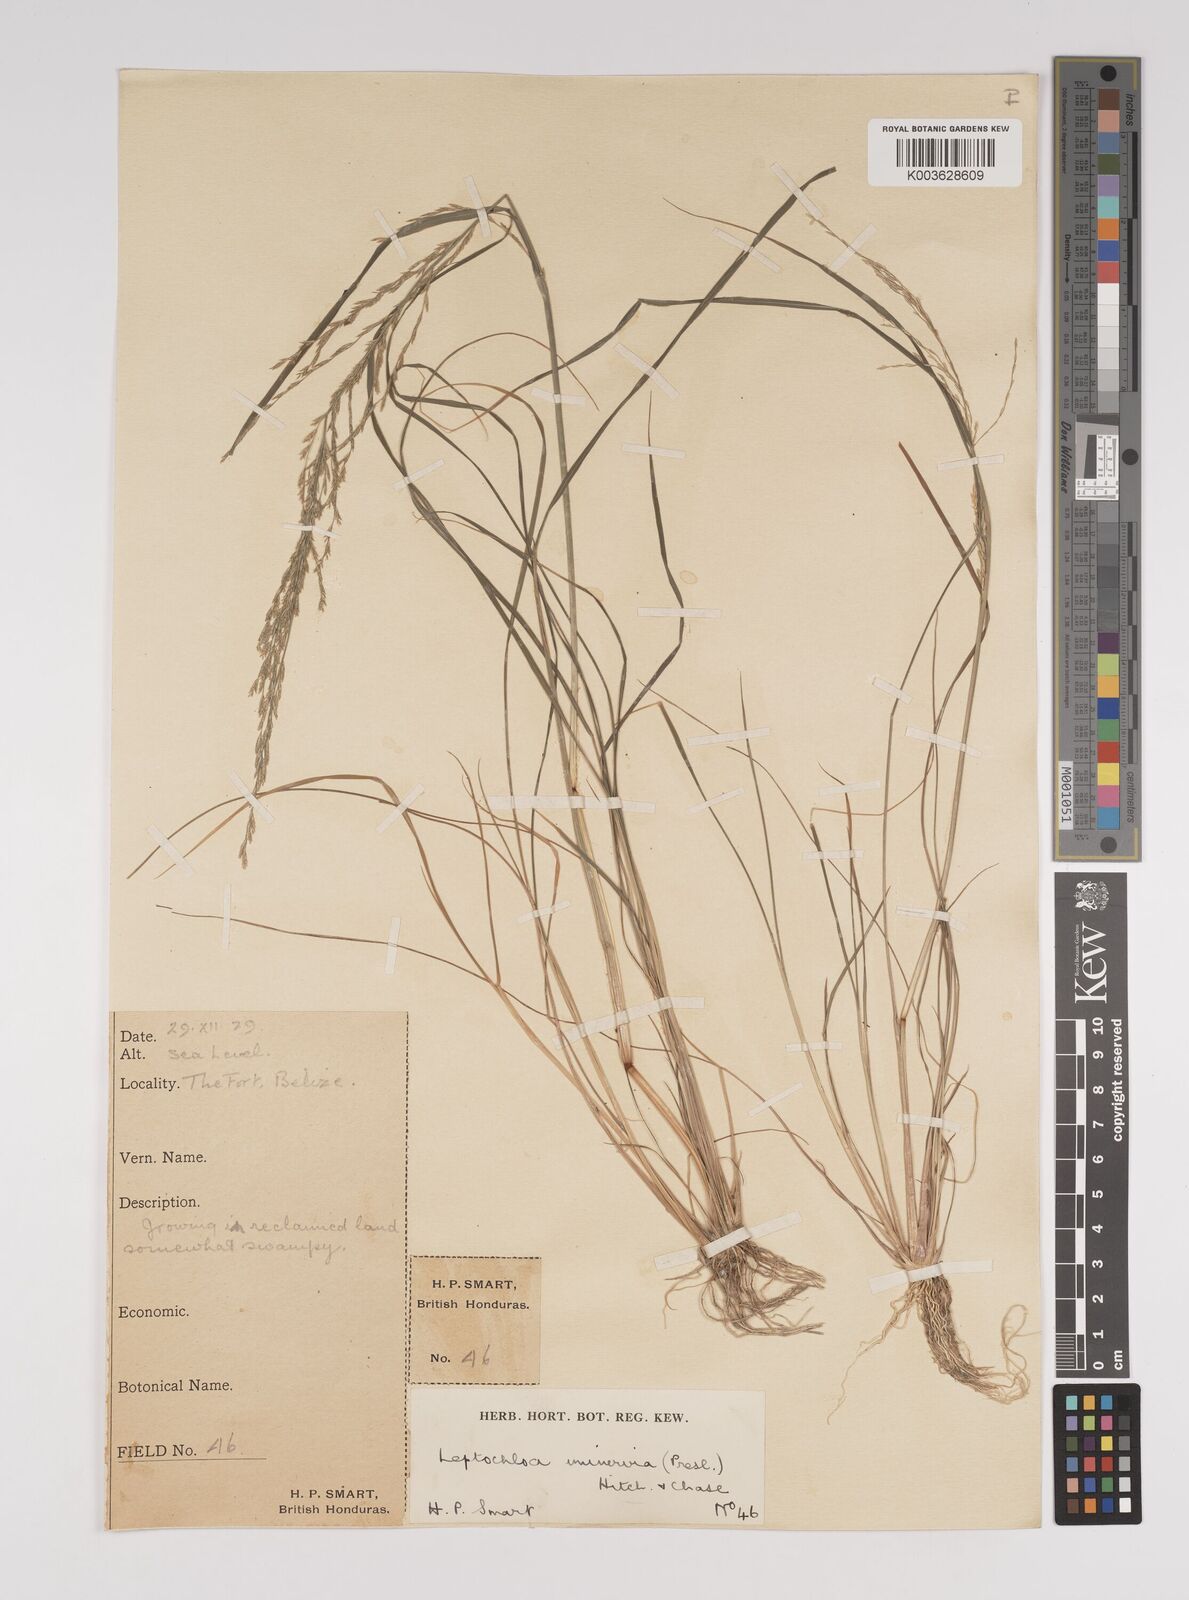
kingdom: Plantae
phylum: Tracheophyta
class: Liliopsida
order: Poales
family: Poaceae
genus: Diplachne
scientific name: Diplachne fusca
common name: Brown beetle grass
